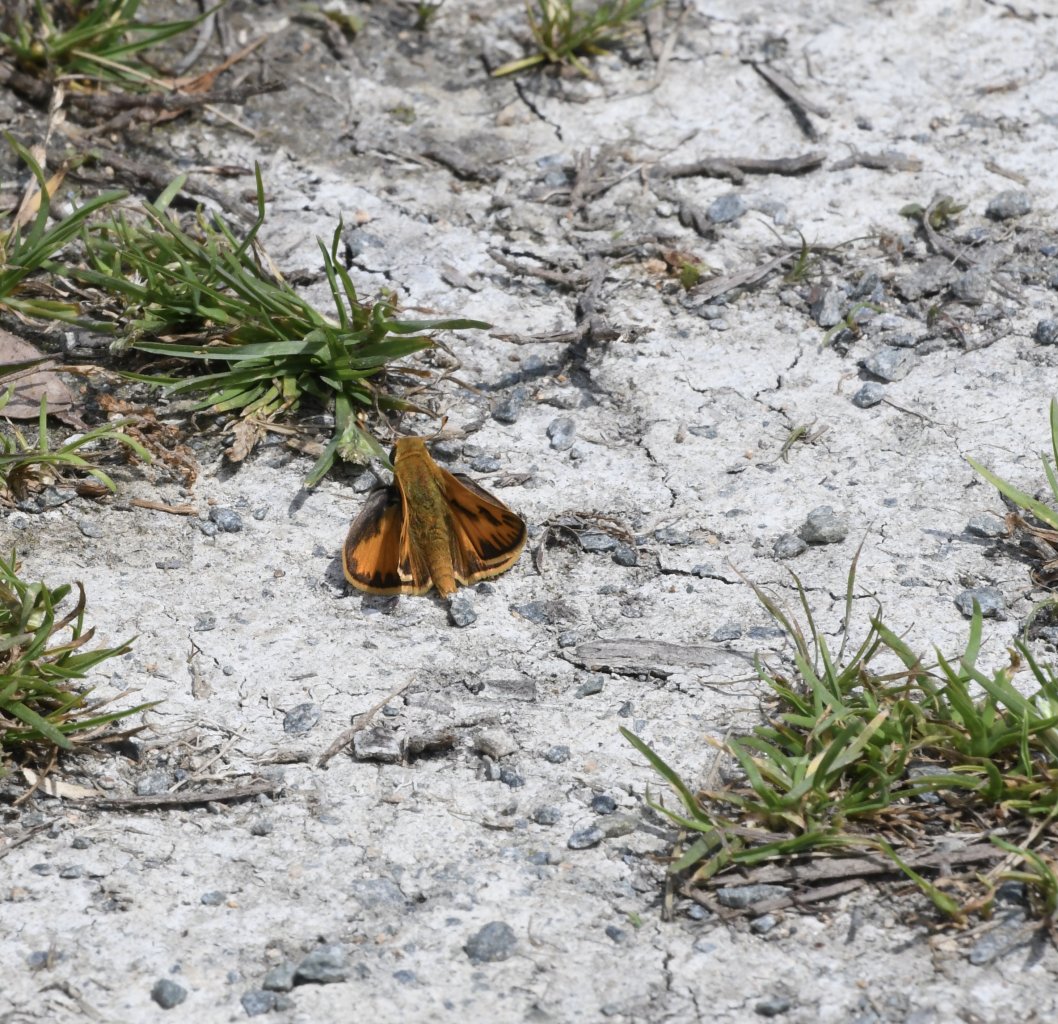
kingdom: Animalia
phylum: Arthropoda
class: Insecta
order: Lepidoptera
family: Hesperiidae
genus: Hylephila
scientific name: Hylephila phyleus
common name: Fiery Skipper
